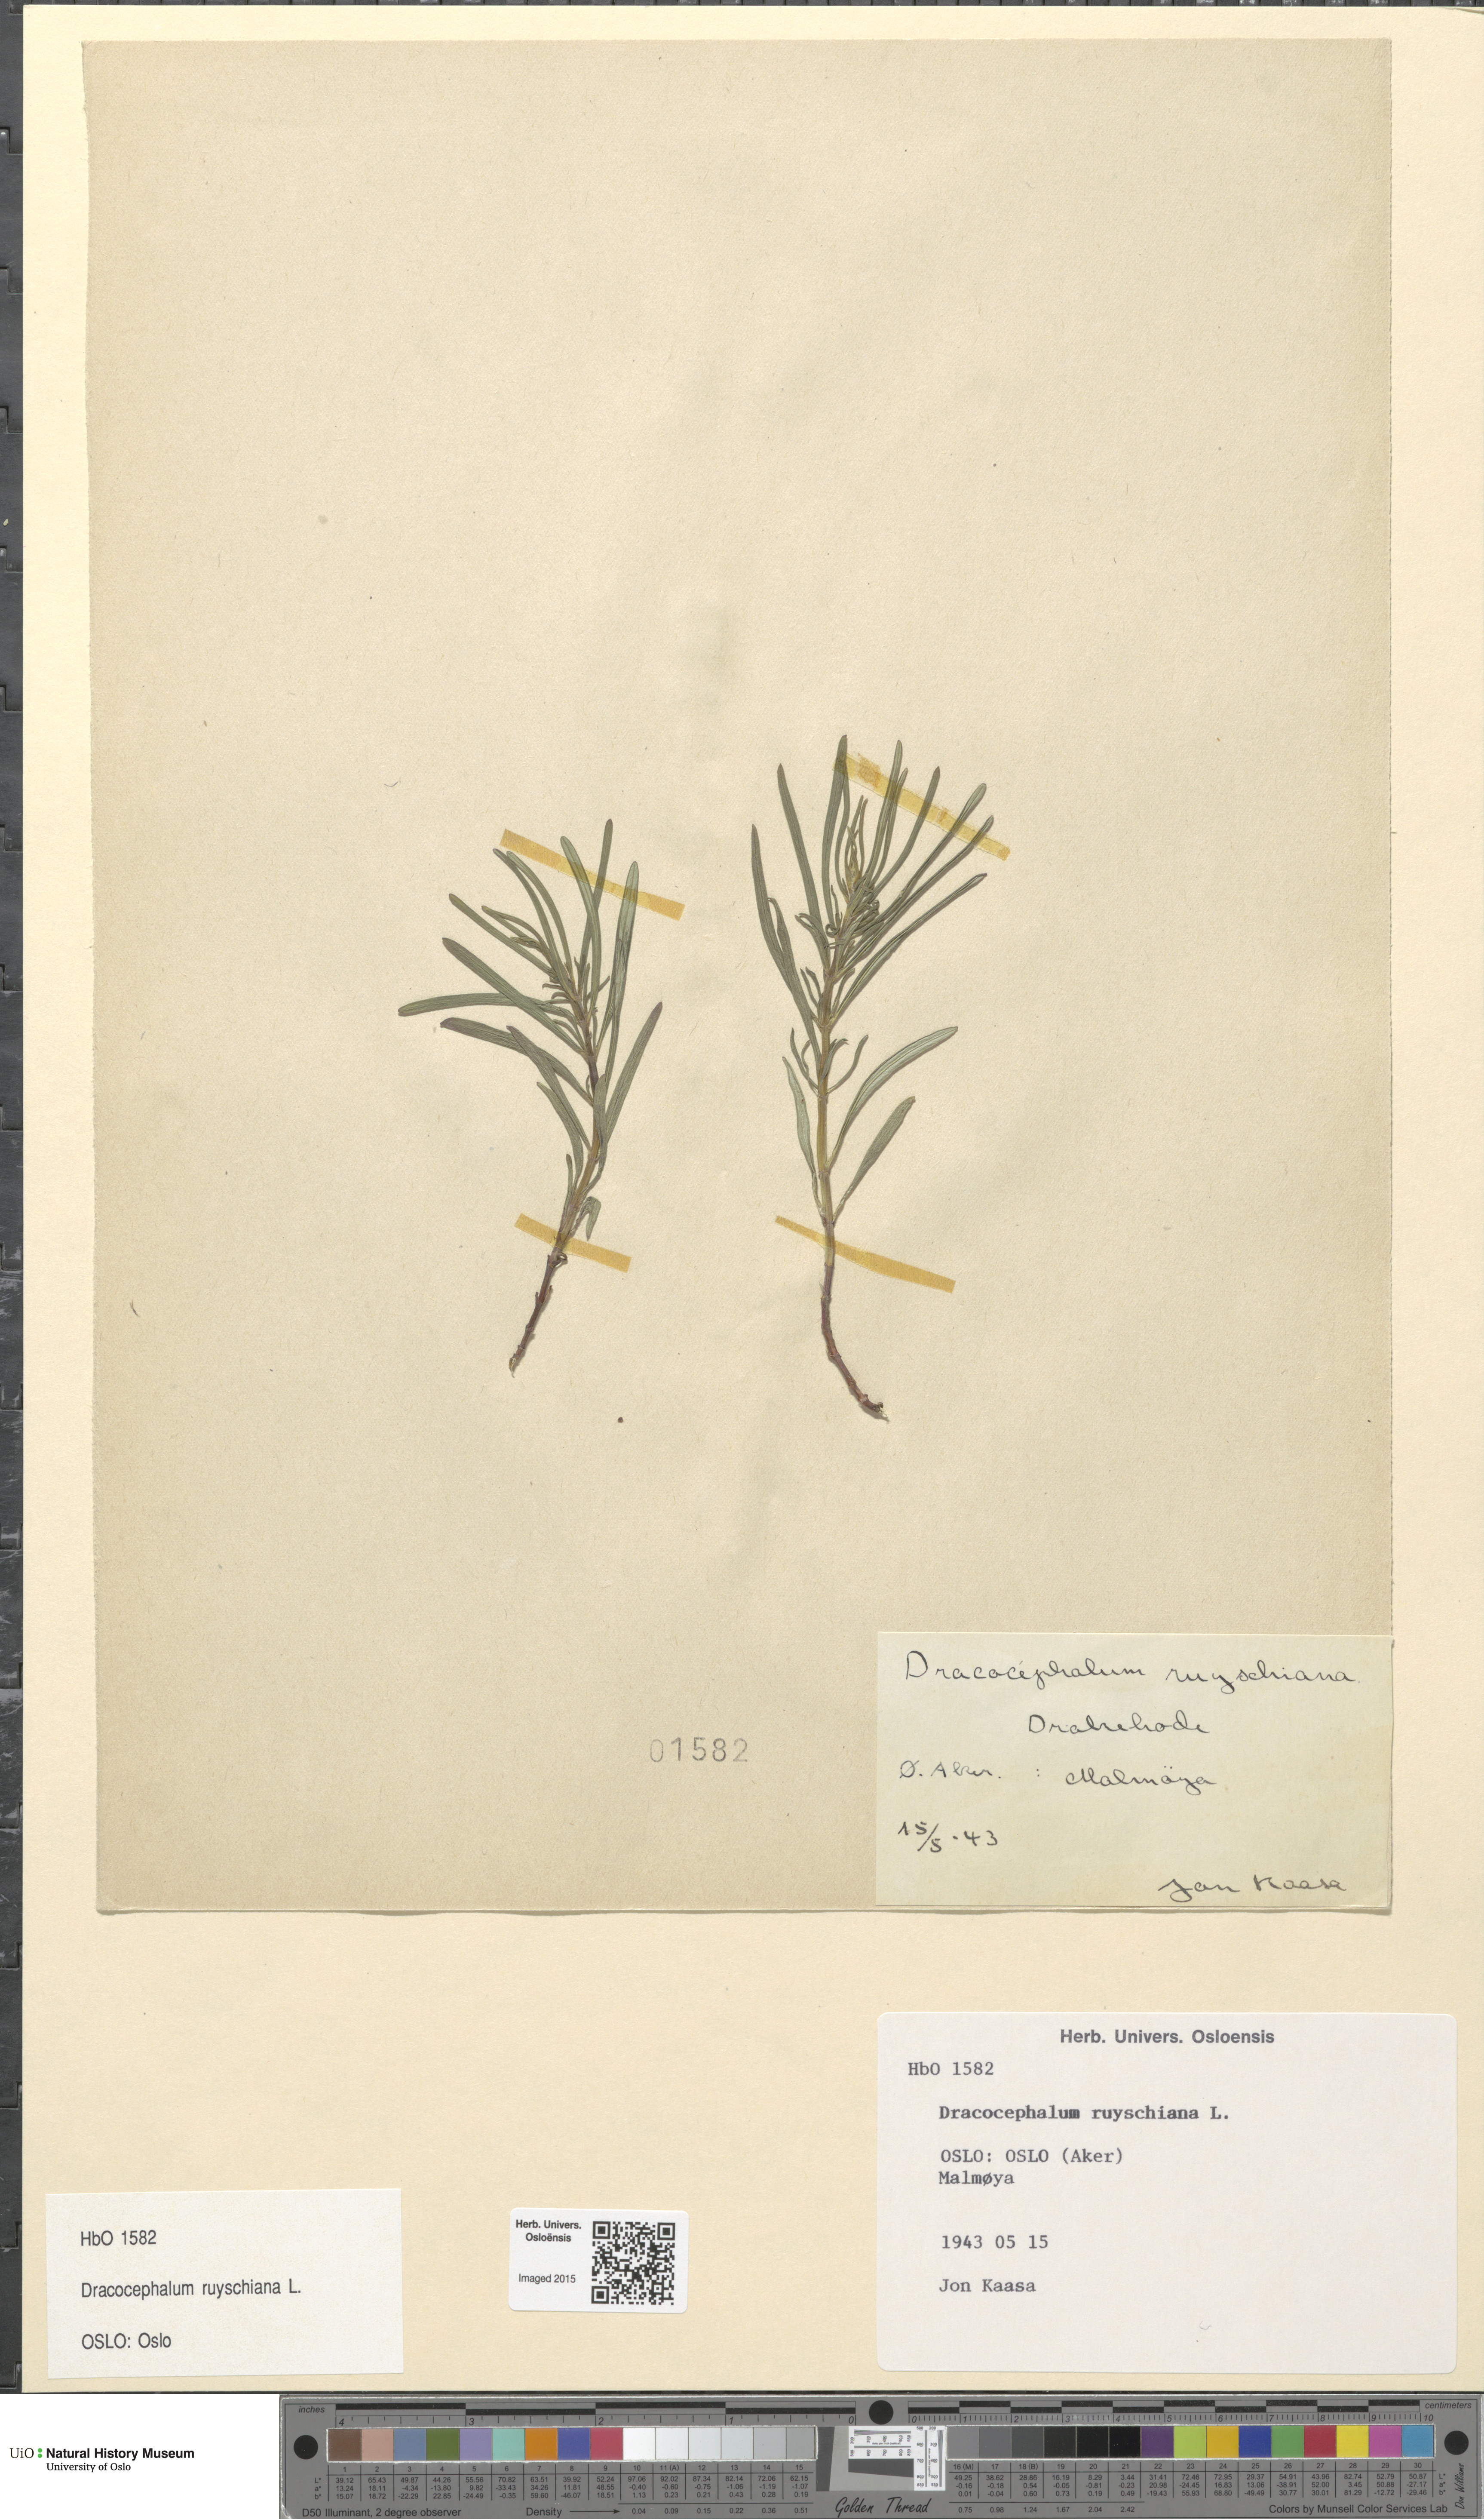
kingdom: Plantae
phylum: Tracheophyta
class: Magnoliopsida
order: Lamiales
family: Lamiaceae
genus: Dracocephalum
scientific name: Dracocephalum ruyschiana
